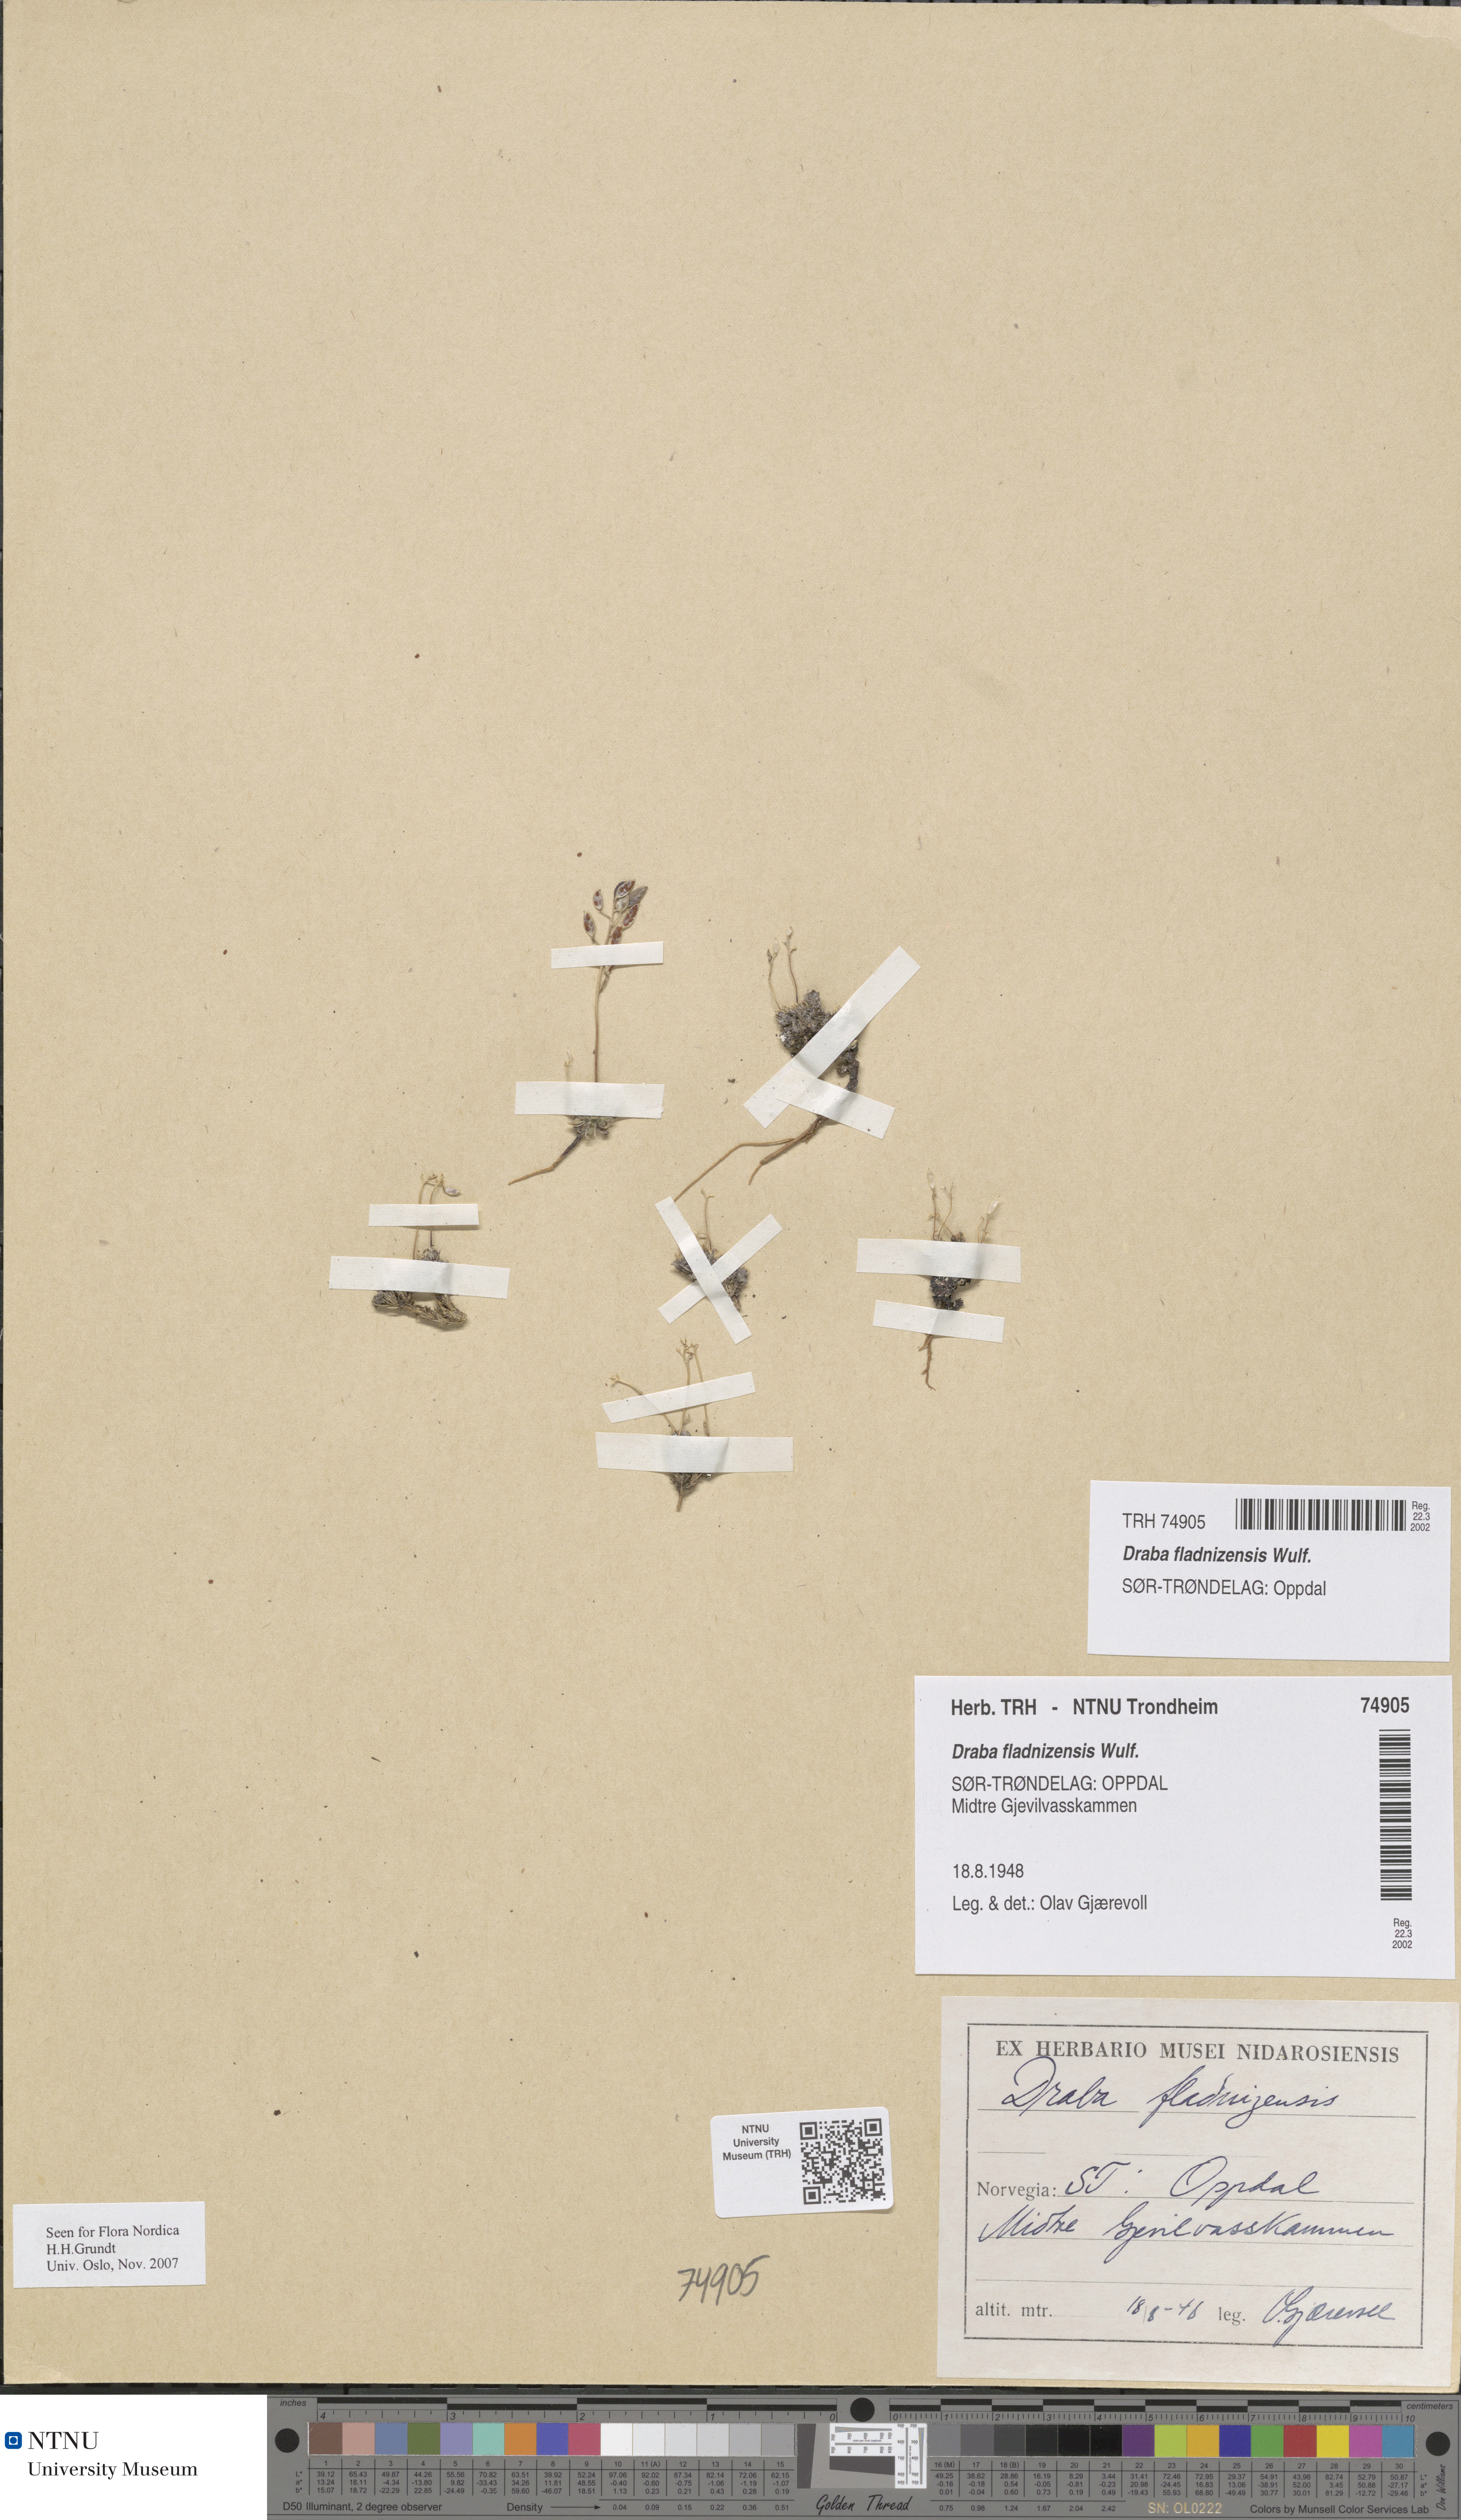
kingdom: Plantae
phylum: Tracheophyta
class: Magnoliopsida
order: Brassicales
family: Brassicaceae
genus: Draba
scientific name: Draba fladnizensis
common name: Austrian draba
